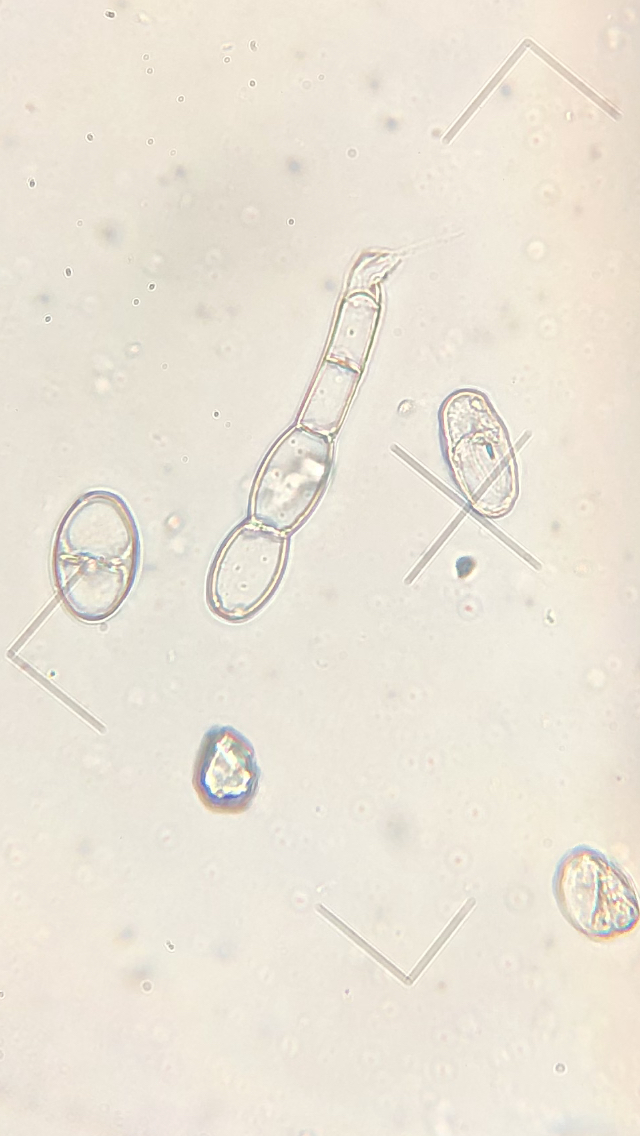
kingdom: Fungi
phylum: Ascomycota
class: Leotiomycetes
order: Helotiales
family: Erysiphaceae
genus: Podosphaera
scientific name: Podosphaera mors-uvae
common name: American gooseberry mildew
